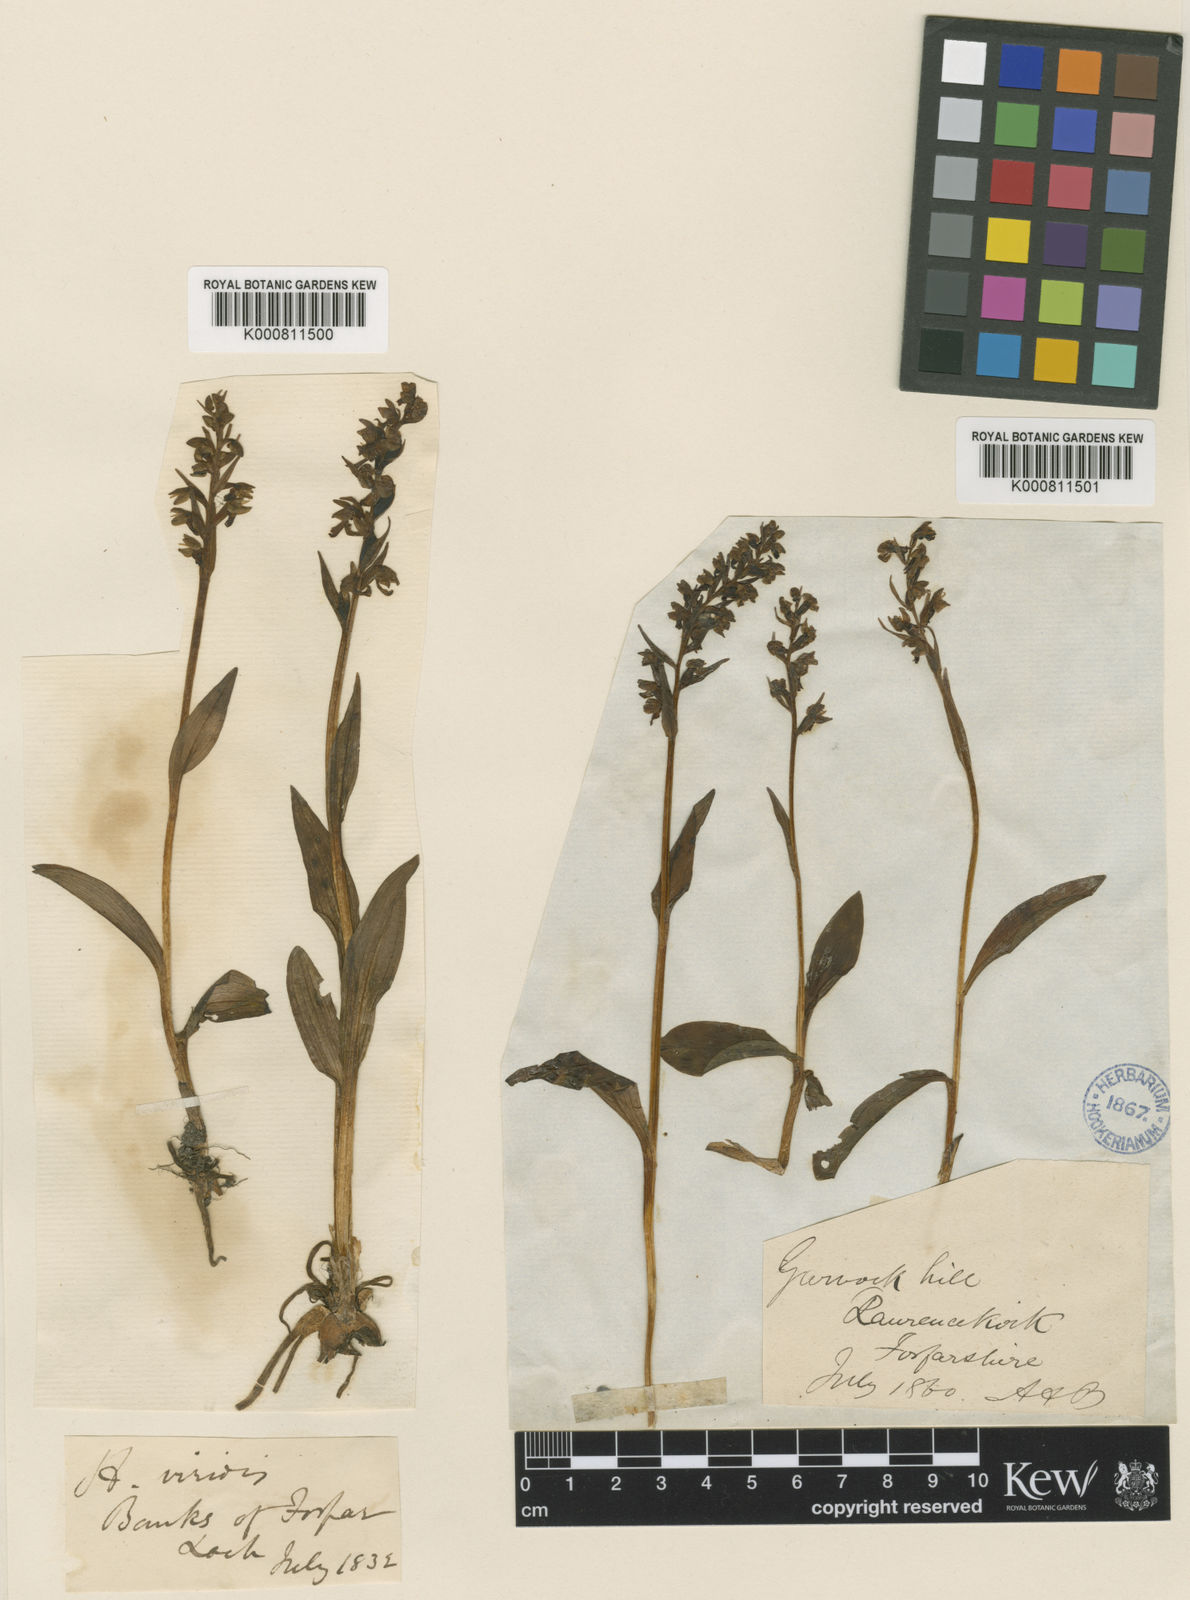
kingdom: Plantae
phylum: Tracheophyta
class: Liliopsida
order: Asparagales
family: Orchidaceae
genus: Dactylorhiza
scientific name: Dactylorhiza viridis
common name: Longbract frog orchid
